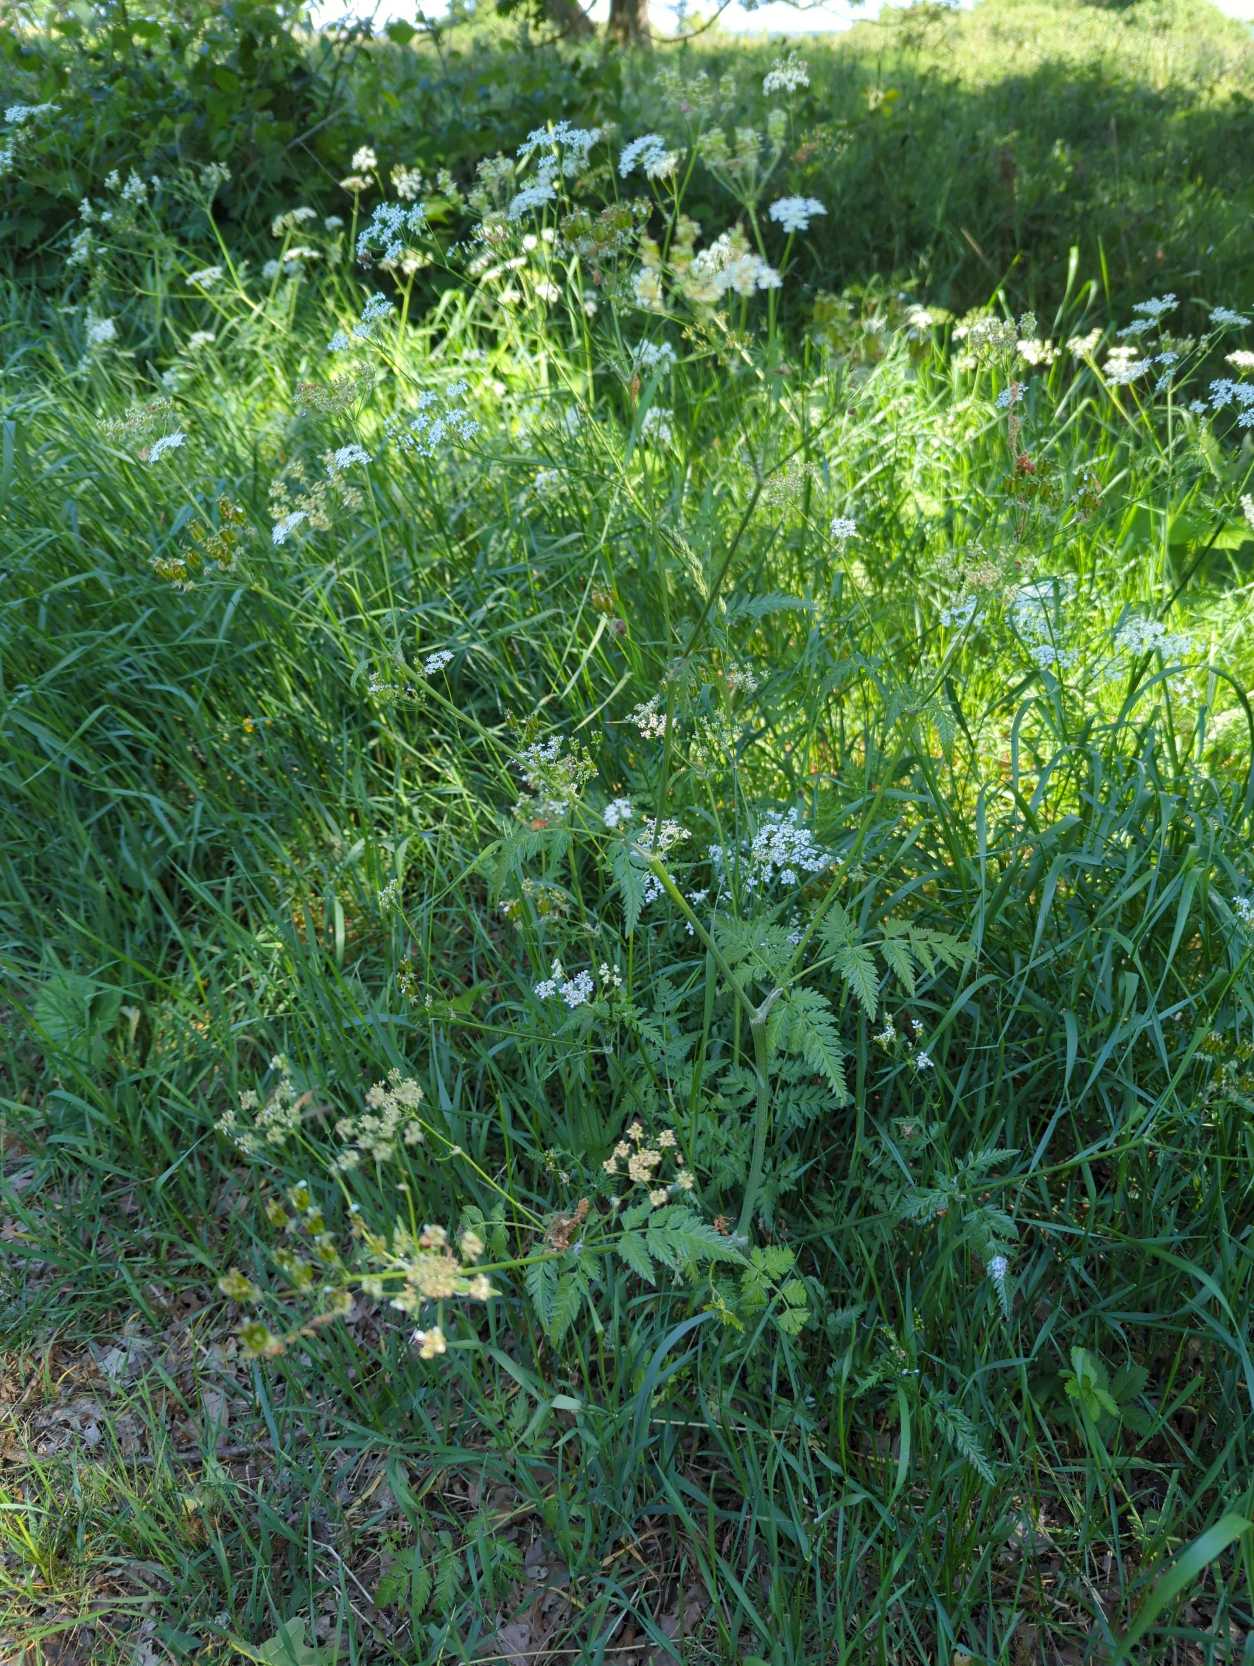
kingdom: Plantae
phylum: Tracheophyta
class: Magnoliopsida
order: Apiales
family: Apiaceae
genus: Anthriscus
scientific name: Anthriscus sylvestris
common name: Vild kørvel
